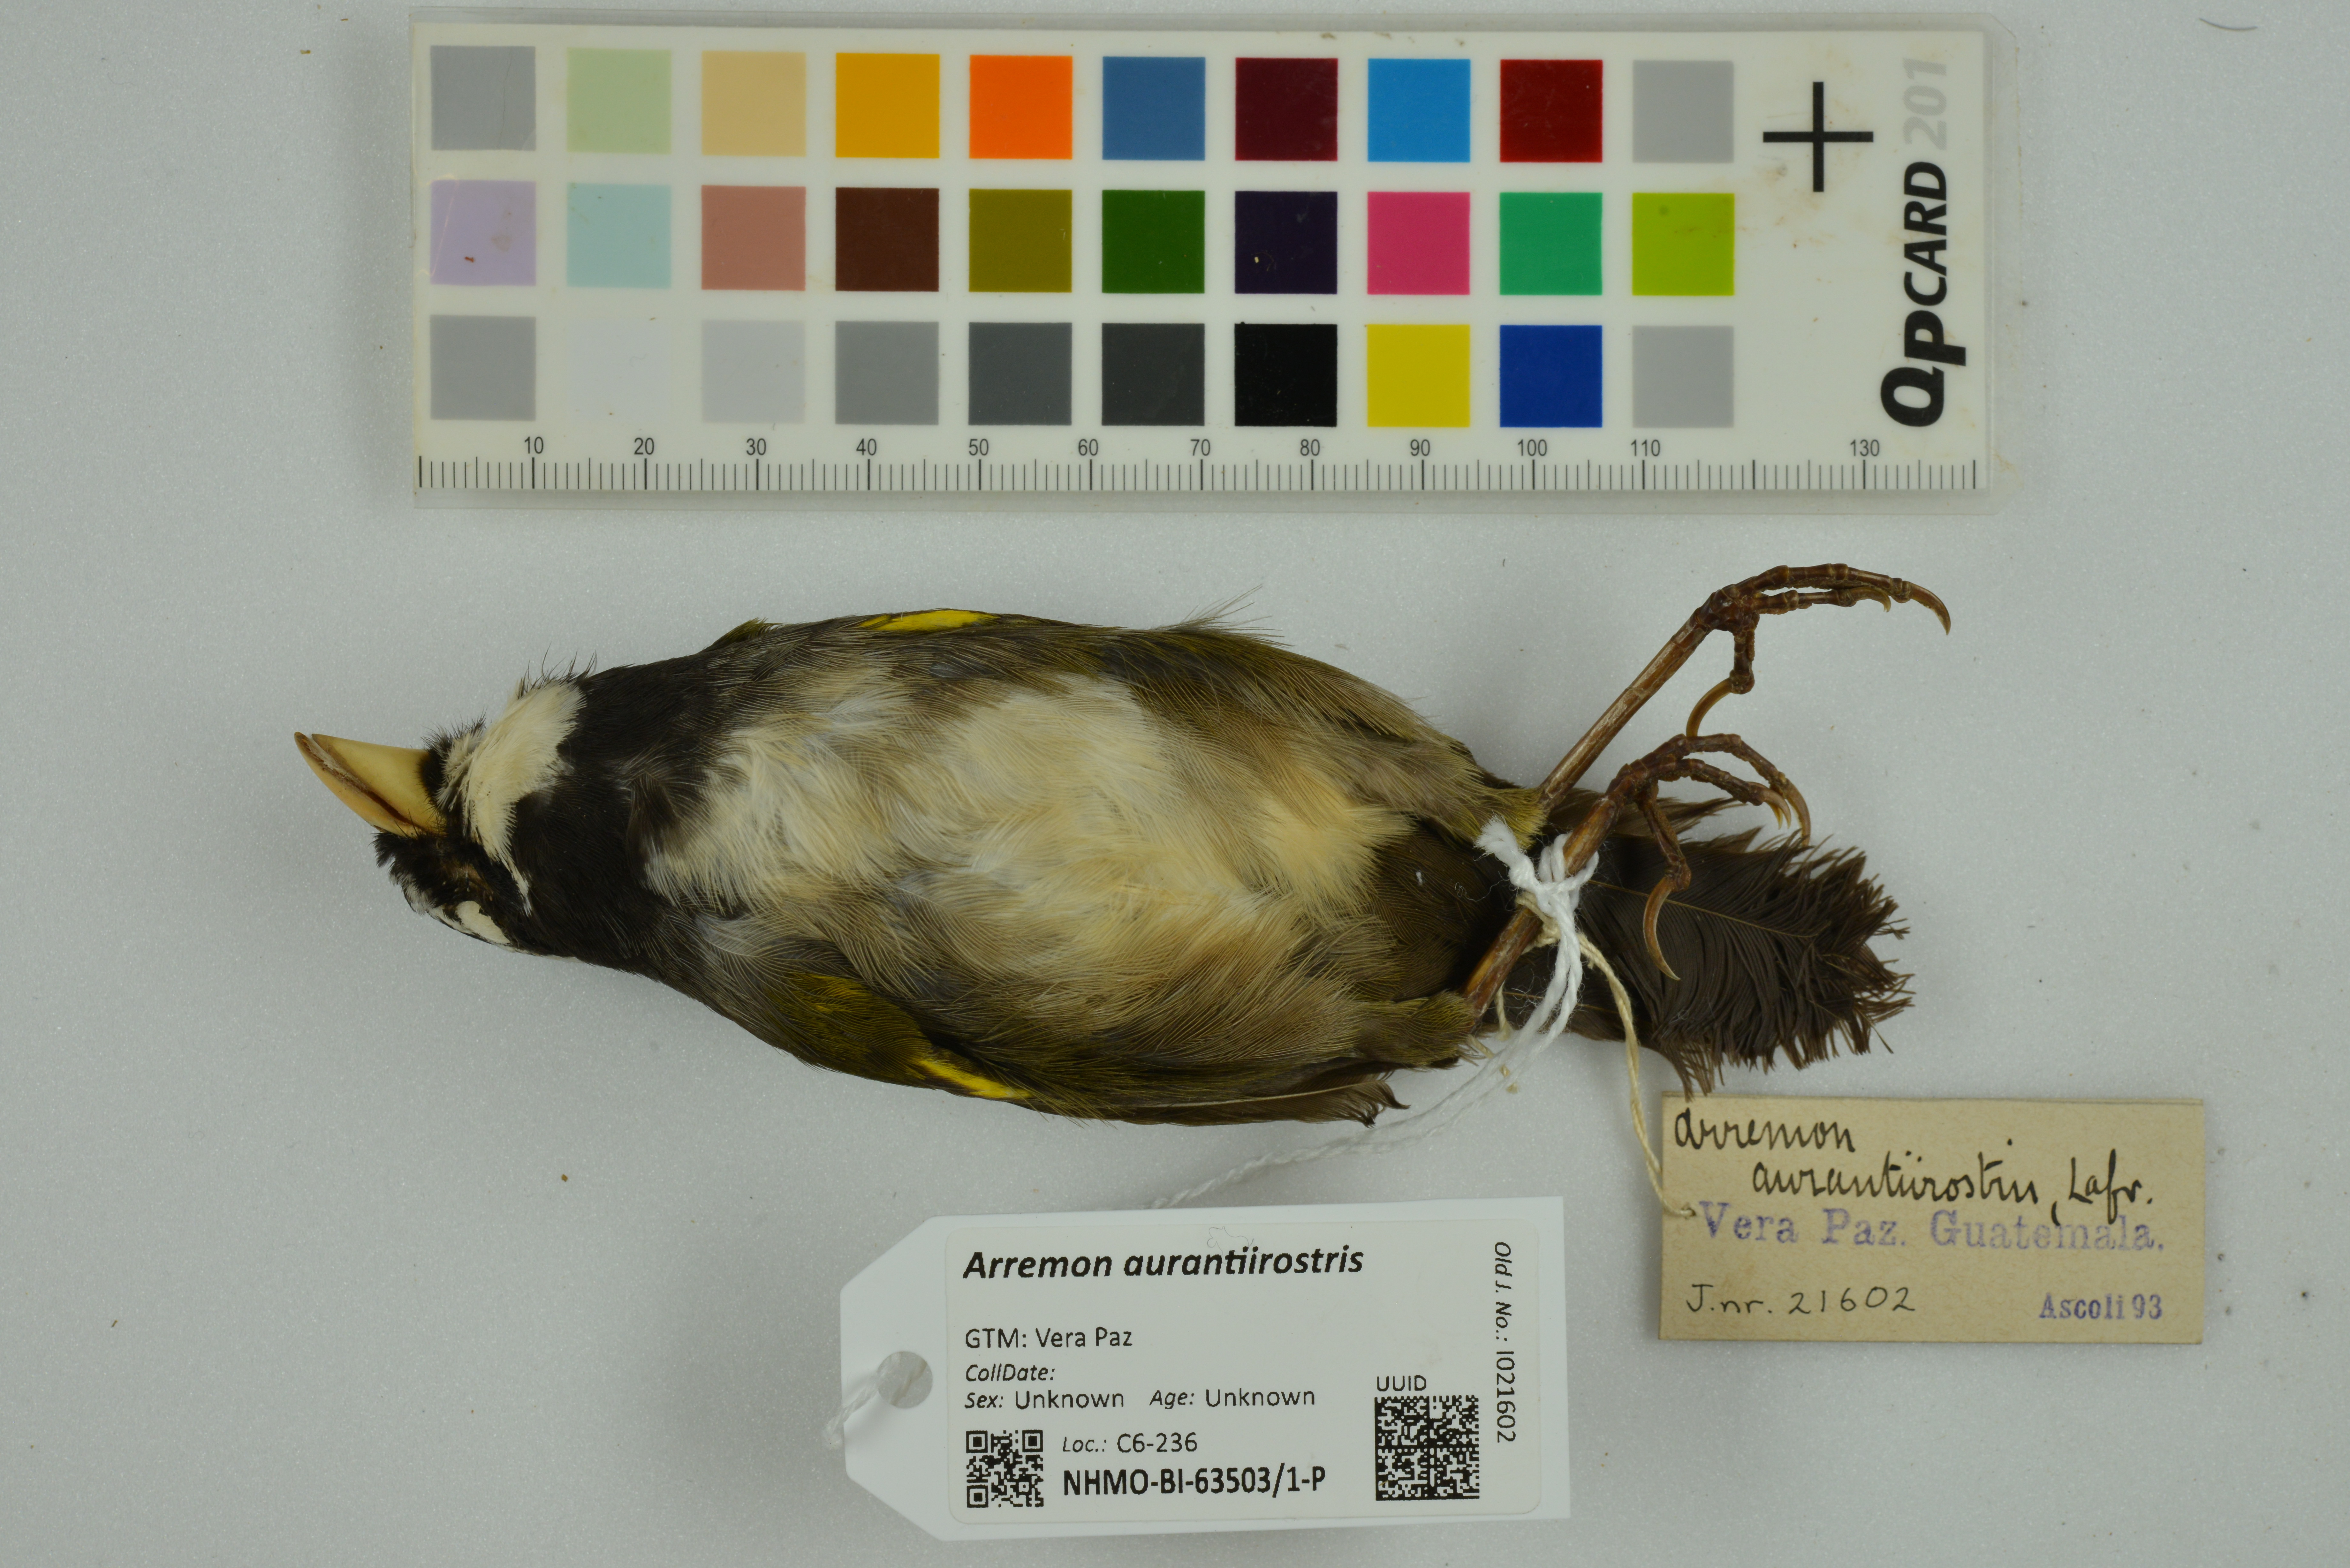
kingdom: Animalia
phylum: Chordata
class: Aves
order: Passeriformes
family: Passerellidae
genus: Arremon
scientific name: Arremon aurantiirostris
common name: Orange-billed sparrow
